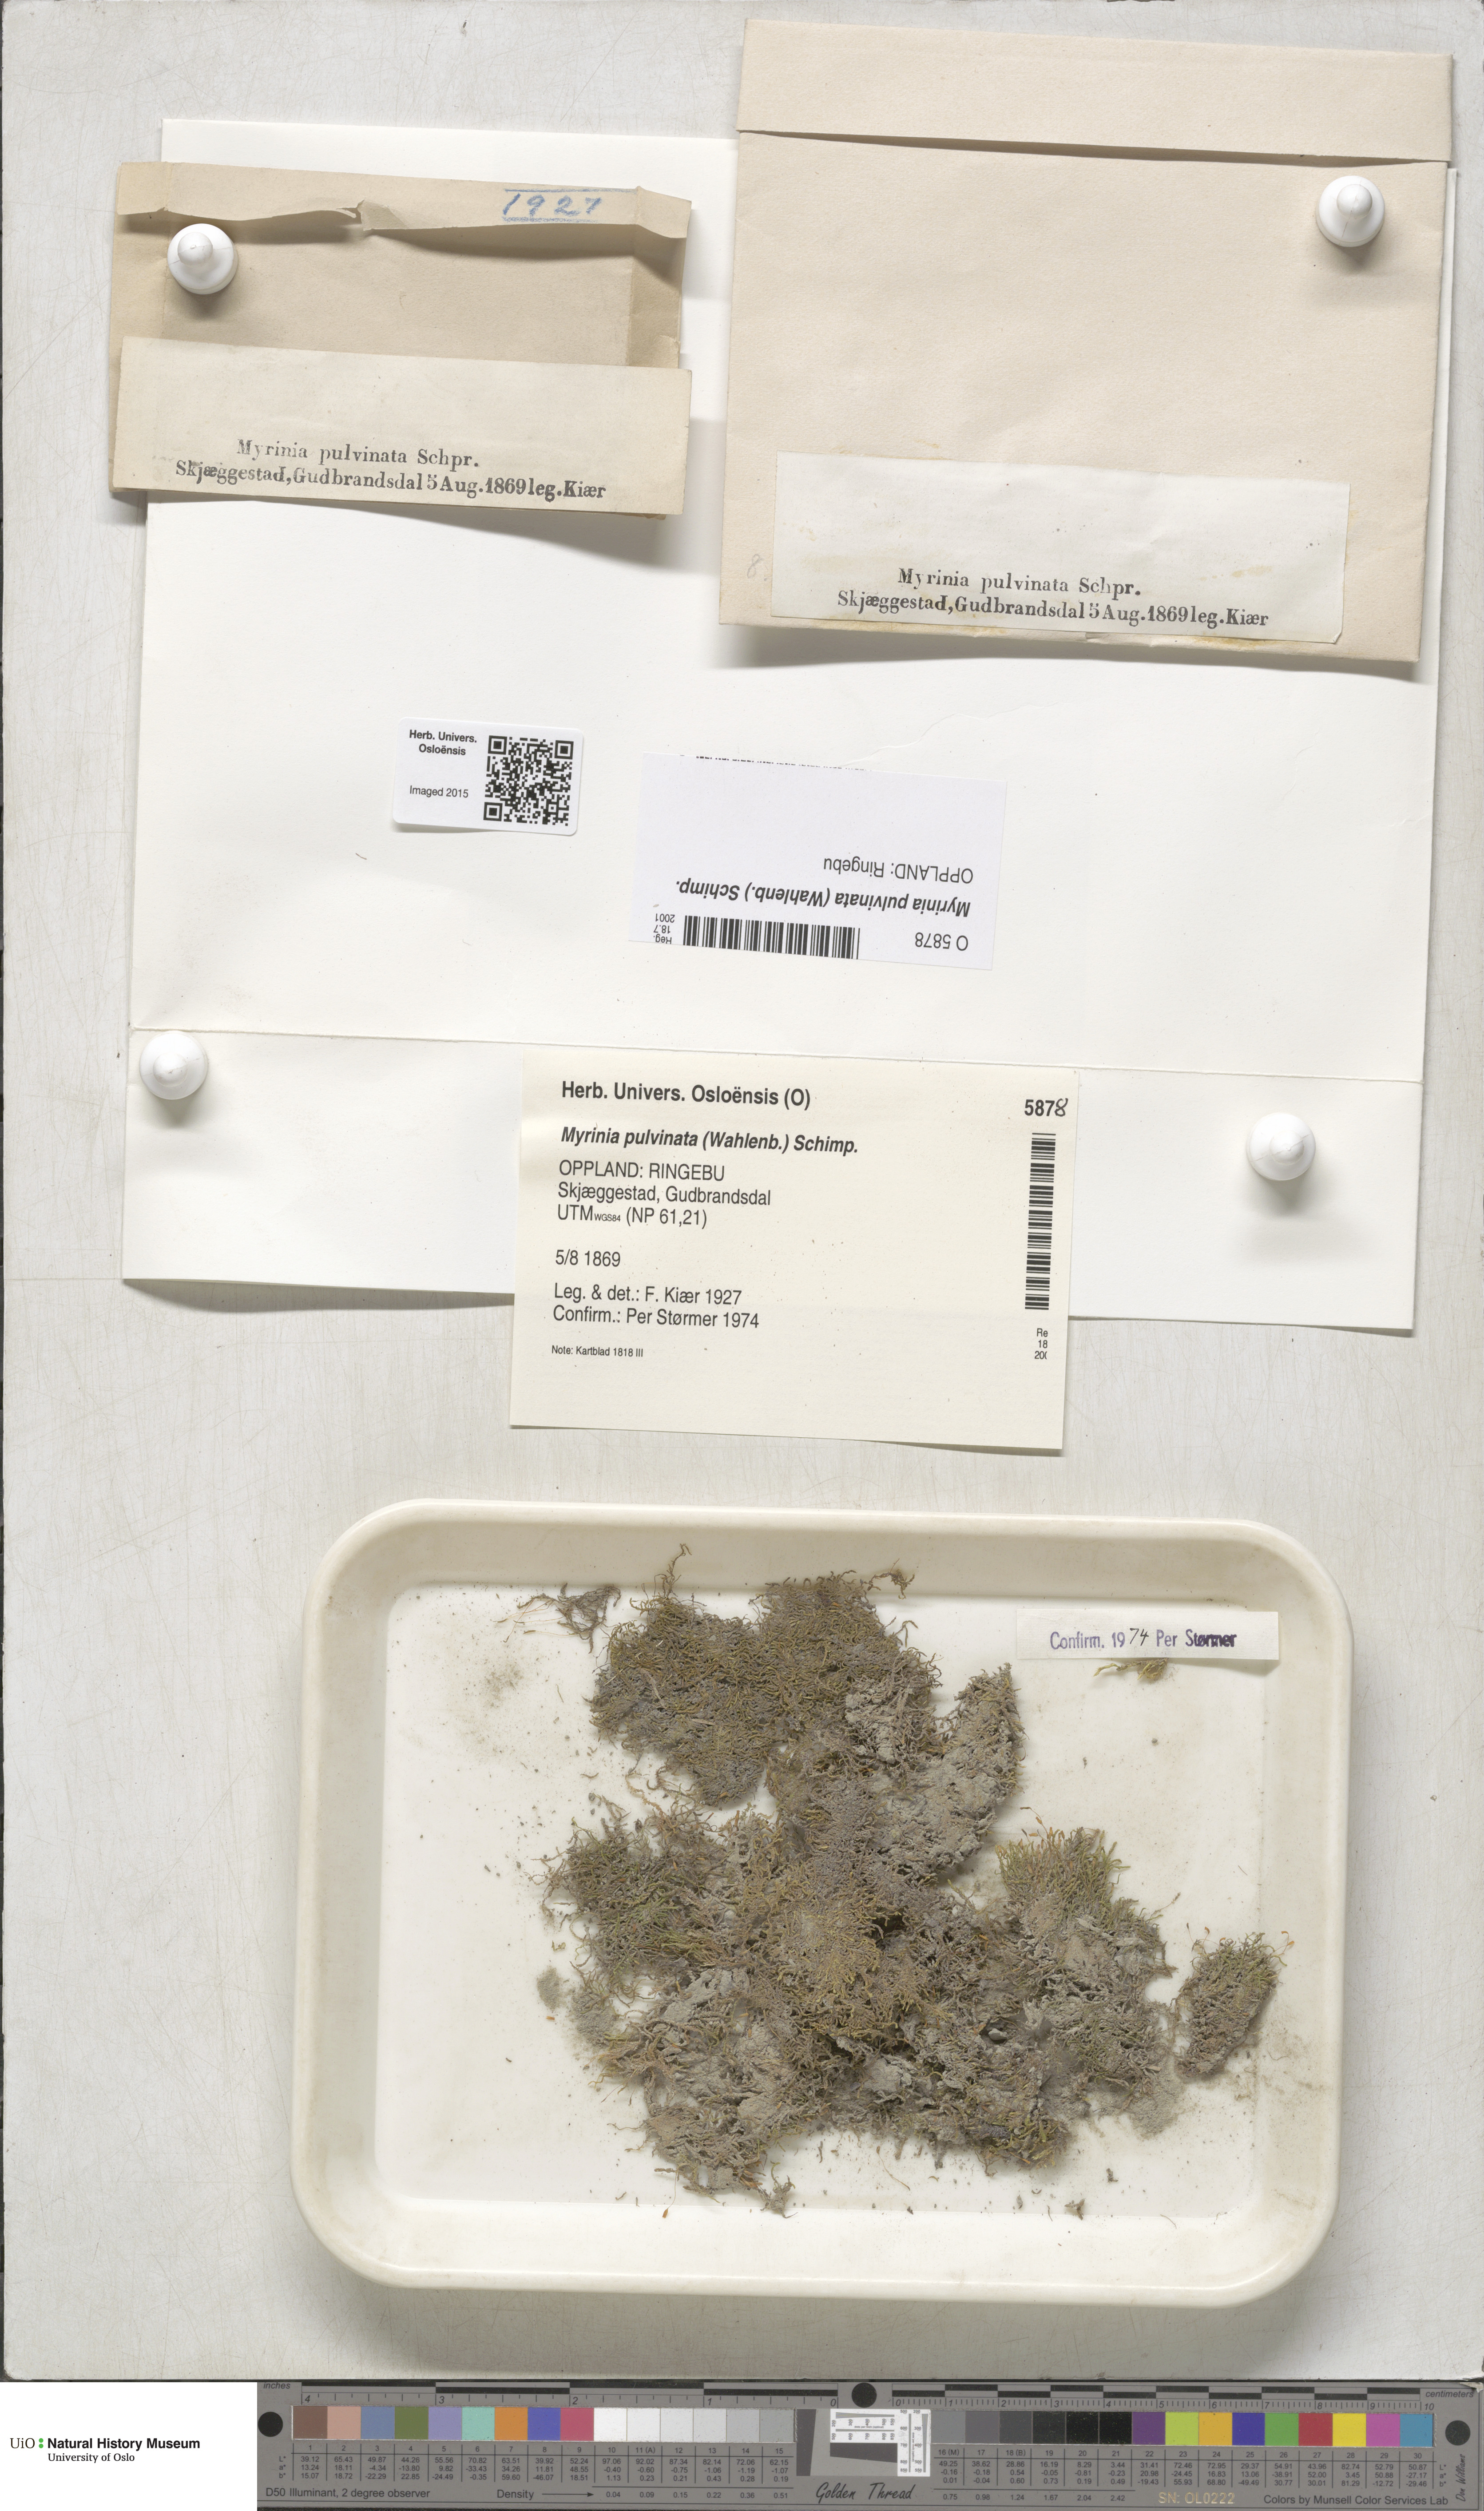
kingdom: Plantae
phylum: Bryophyta
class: Bryopsida
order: Hypnales
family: Myriniaceae
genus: Myrinia
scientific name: Myrinia pulvinata
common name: Flood-moss
